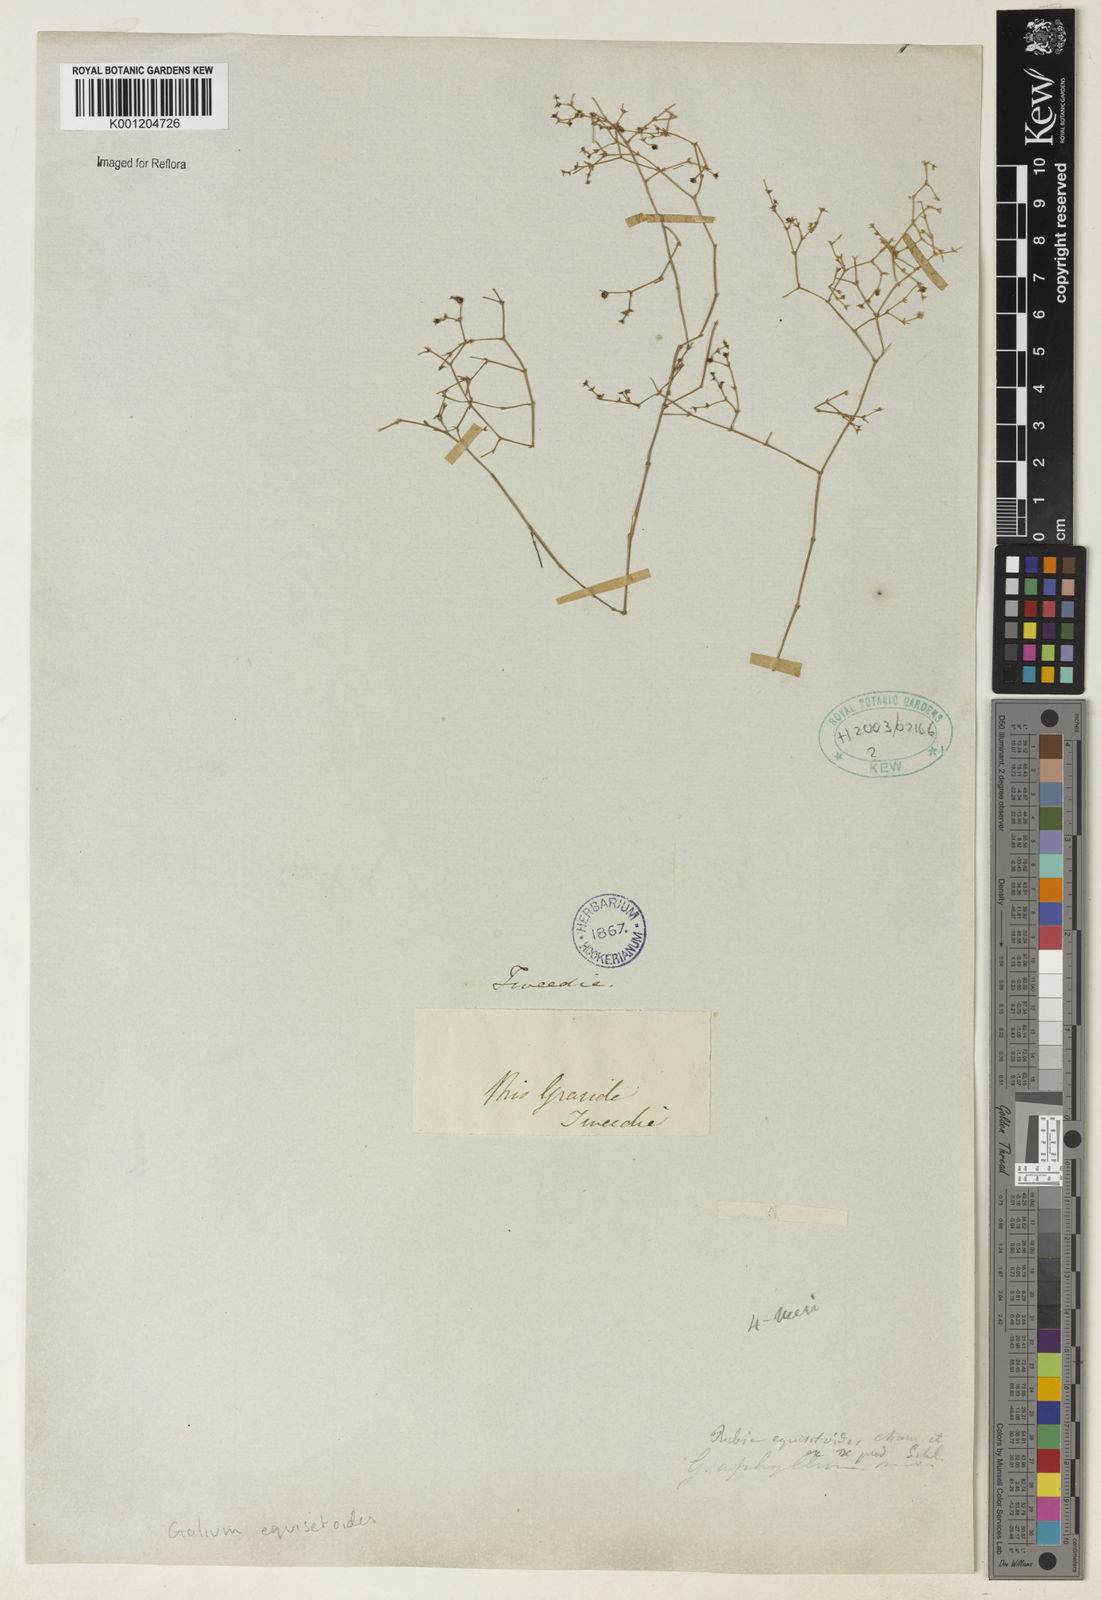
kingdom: Plantae
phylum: Tracheophyta
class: Magnoliopsida
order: Gentianales
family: Rubiaceae
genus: Galium
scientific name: Galium equisetoides
